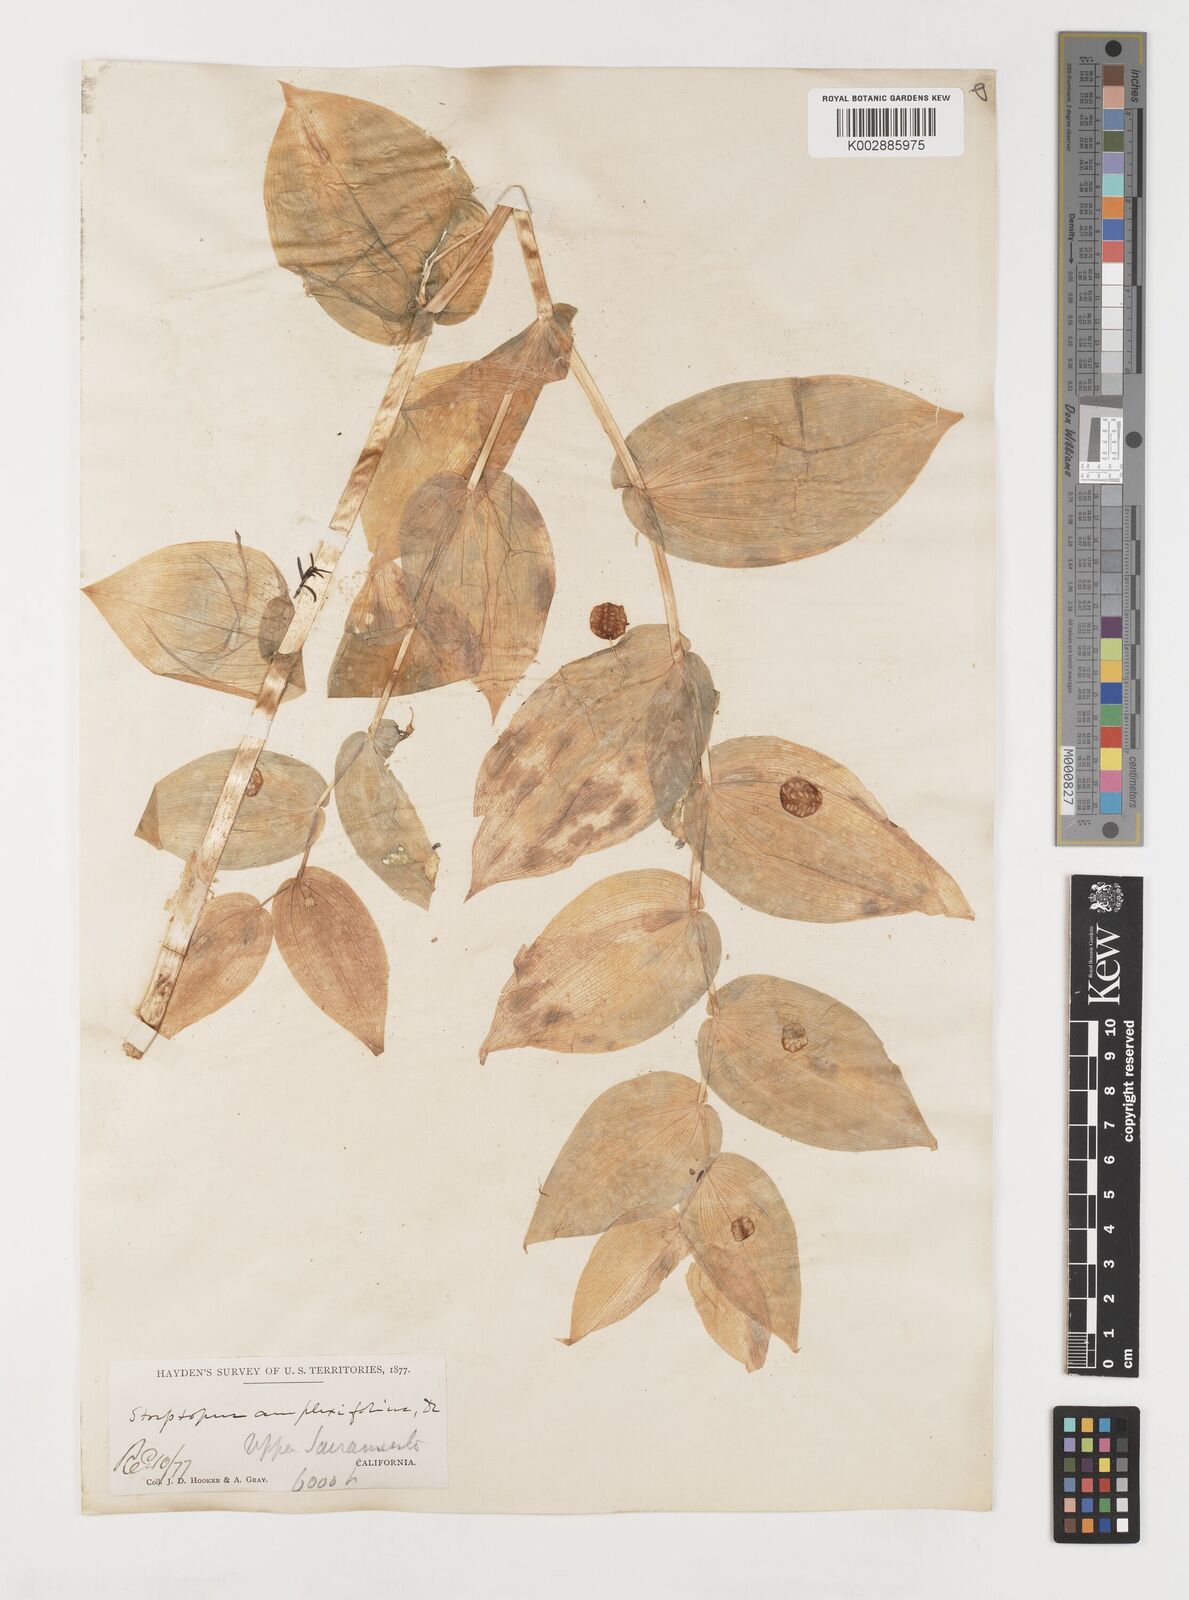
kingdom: Plantae
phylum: Tracheophyta
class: Liliopsida
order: Liliales
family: Liliaceae
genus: Streptopus
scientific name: Streptopus amplexifolius
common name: Clasp twisted stalk
